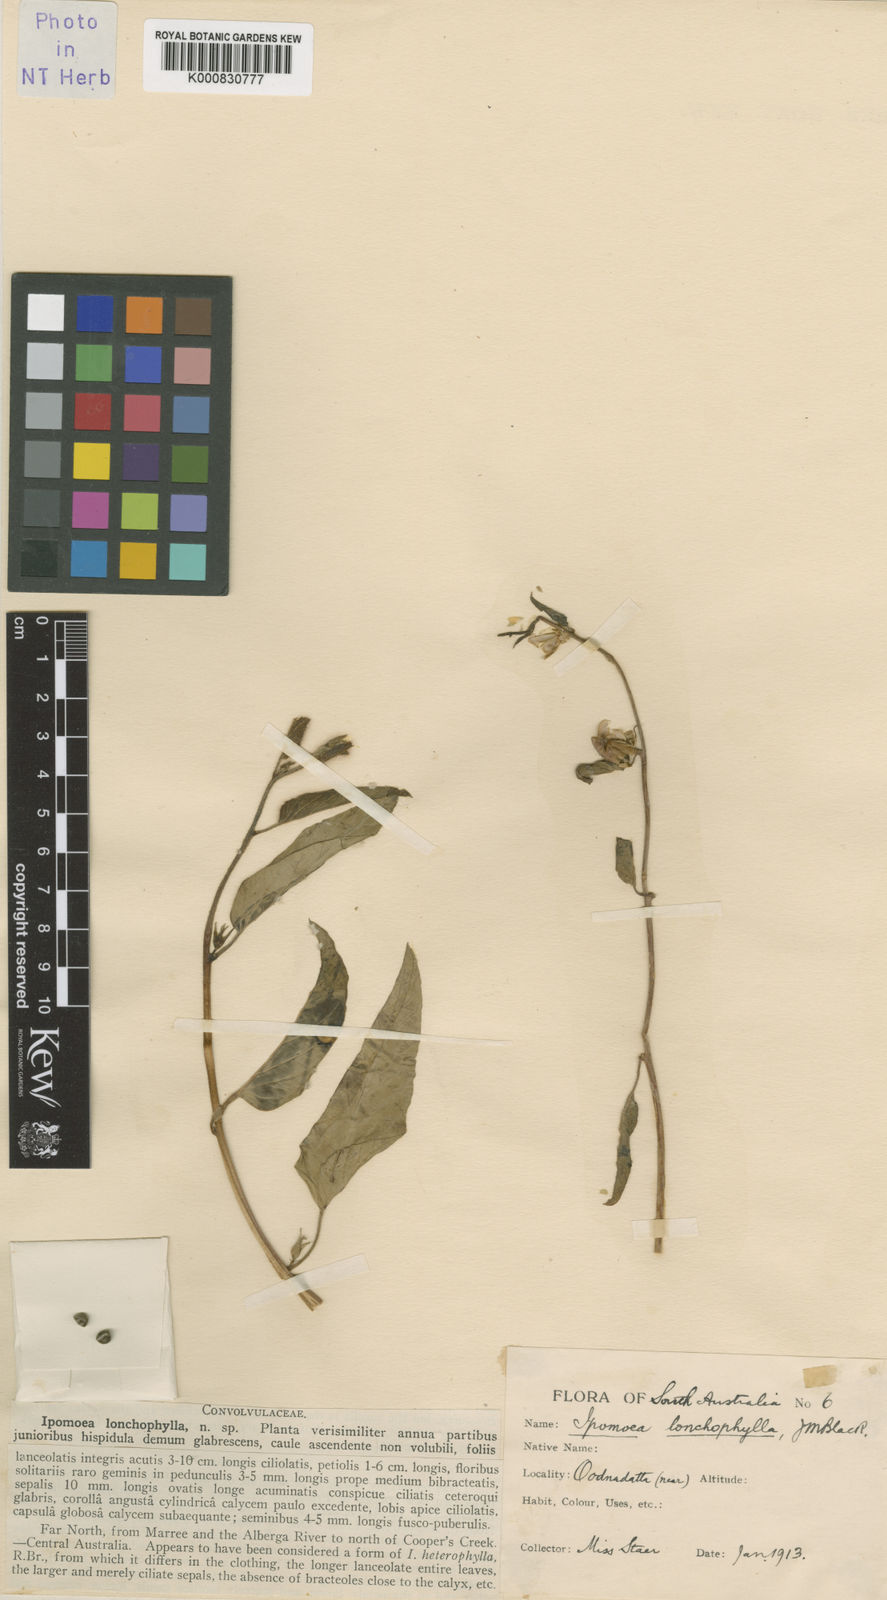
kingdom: Plantae
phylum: Tracheophyta
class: Magnoliopsida
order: Solanales
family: Convolvulaceae
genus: Ipomoea
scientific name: Ipomoea lonchophylla
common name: Cowvine
